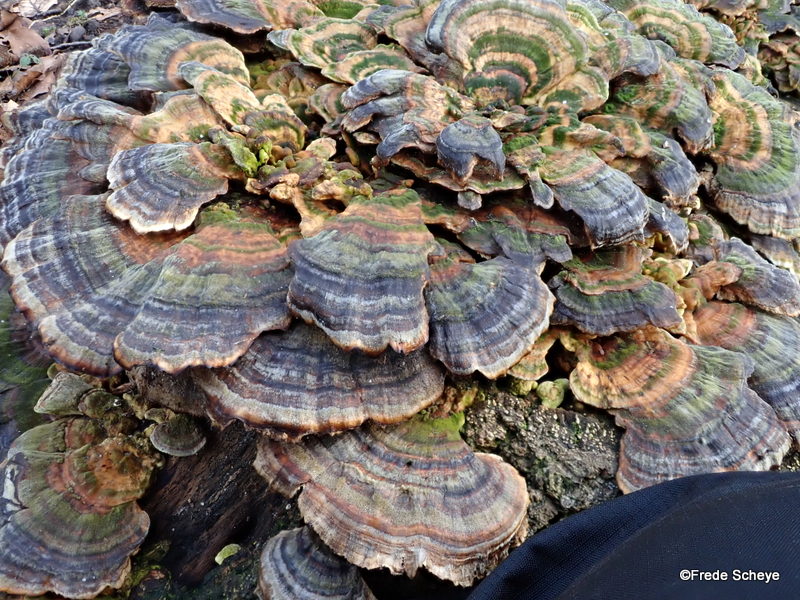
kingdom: Fungi
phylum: Basidiomycota
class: Agaricomycetes
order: Polyporales
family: Polyporaceae
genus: Trametes
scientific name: Trametes versicolor
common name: broget læderporesvamp
